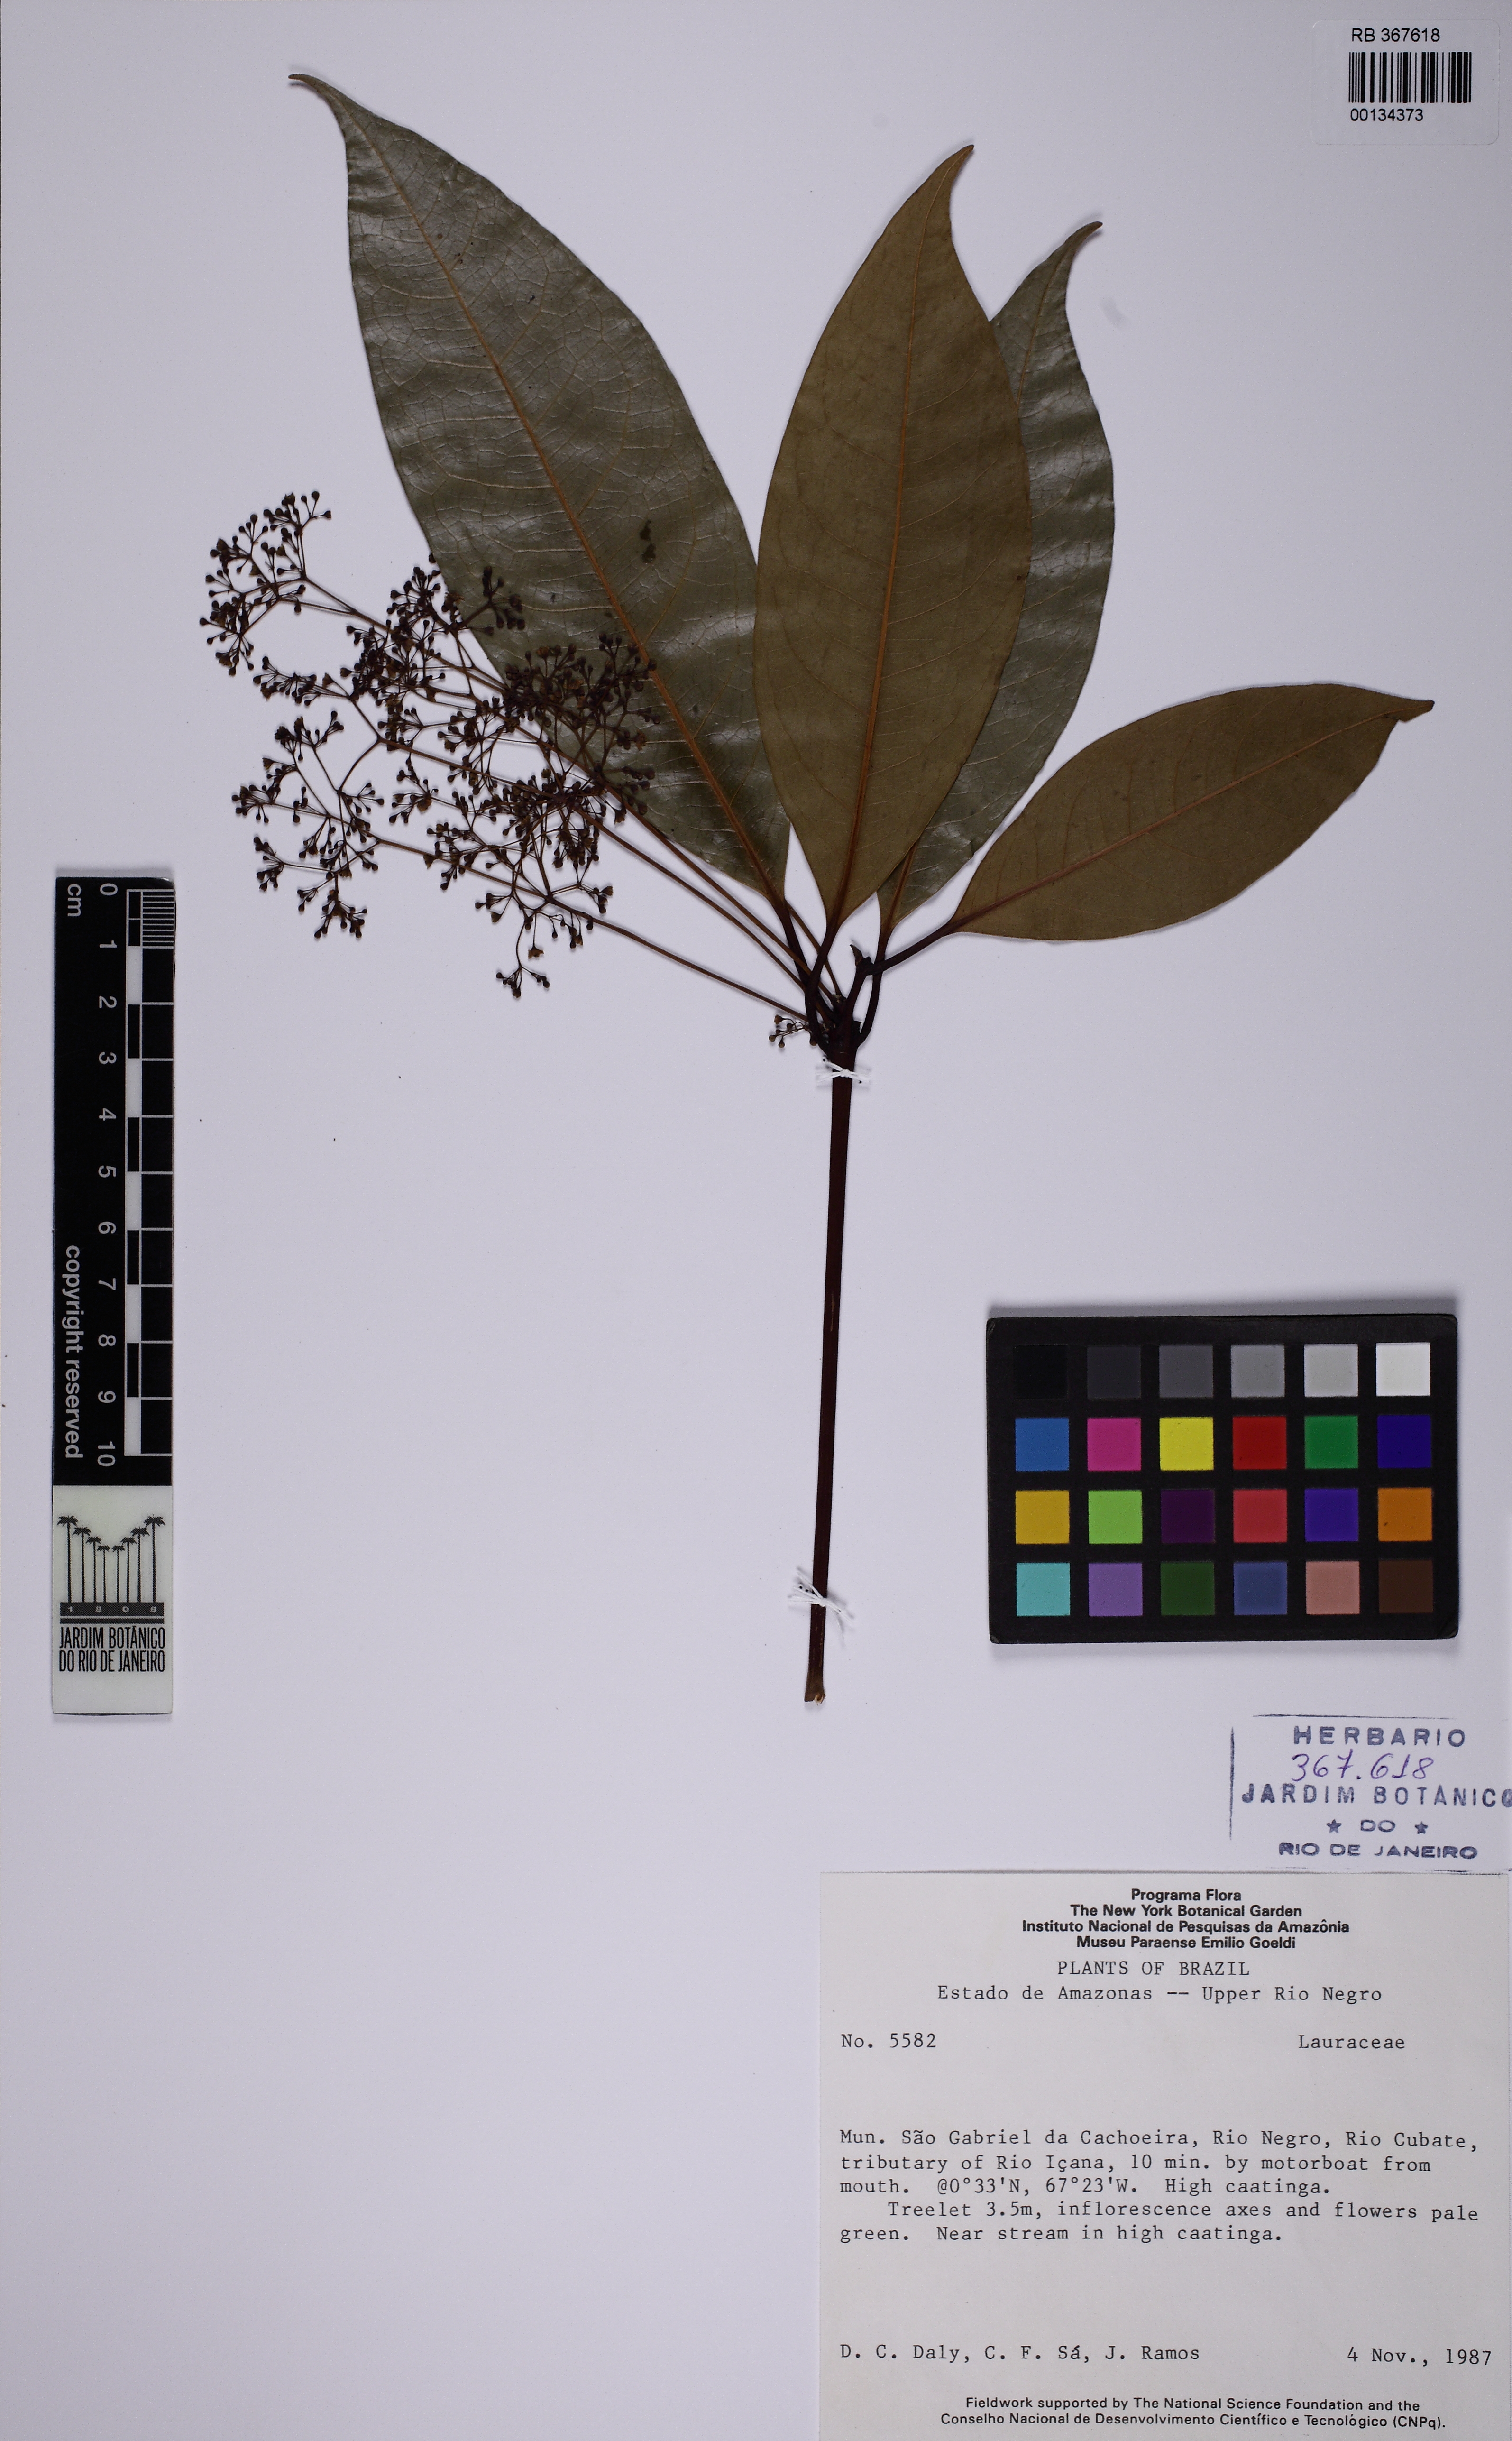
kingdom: Plantae
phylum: Tracheophyta
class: Magnoliopsida
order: Laurales
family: Lauraceae
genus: Aiouea
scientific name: Aiouea maguireana
